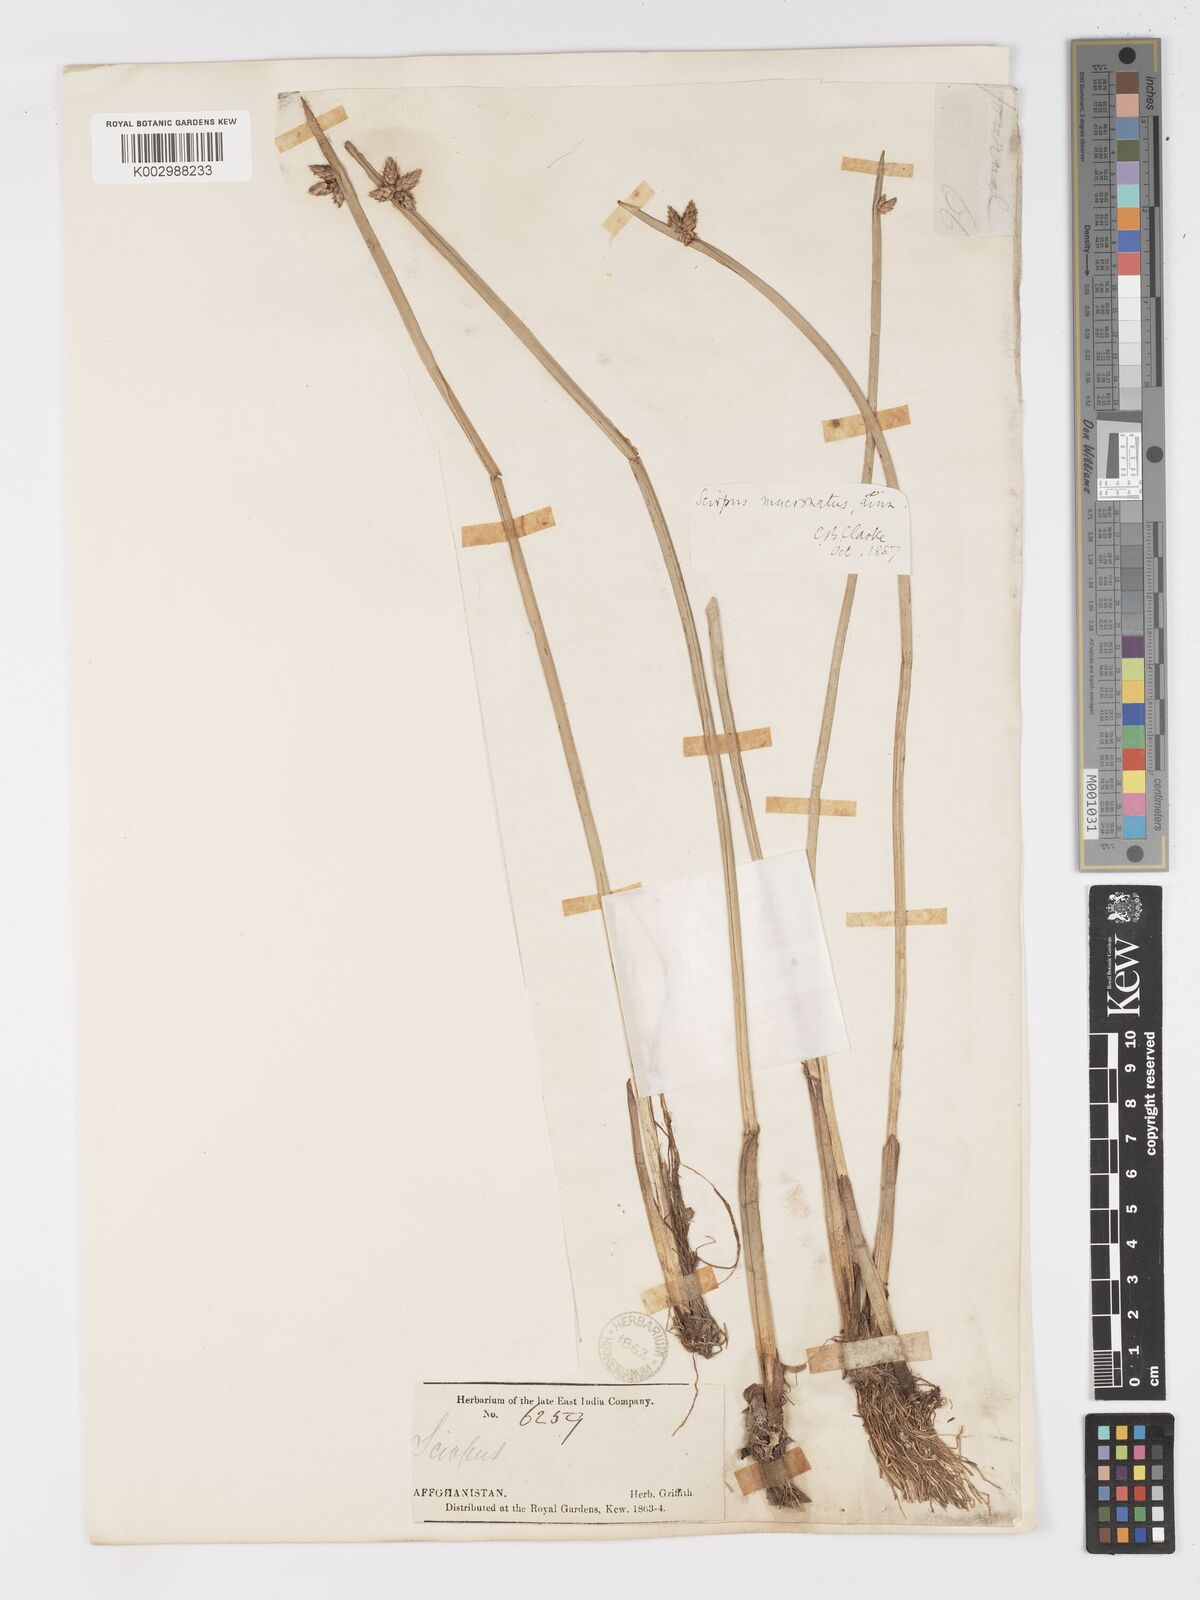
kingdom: Plantae
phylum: Tracheophyta
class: Liliopsida
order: Poales
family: Cyperaceae
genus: Schoenoplectiella
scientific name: Schoenoplectiella mucronata
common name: Bog bulrush
